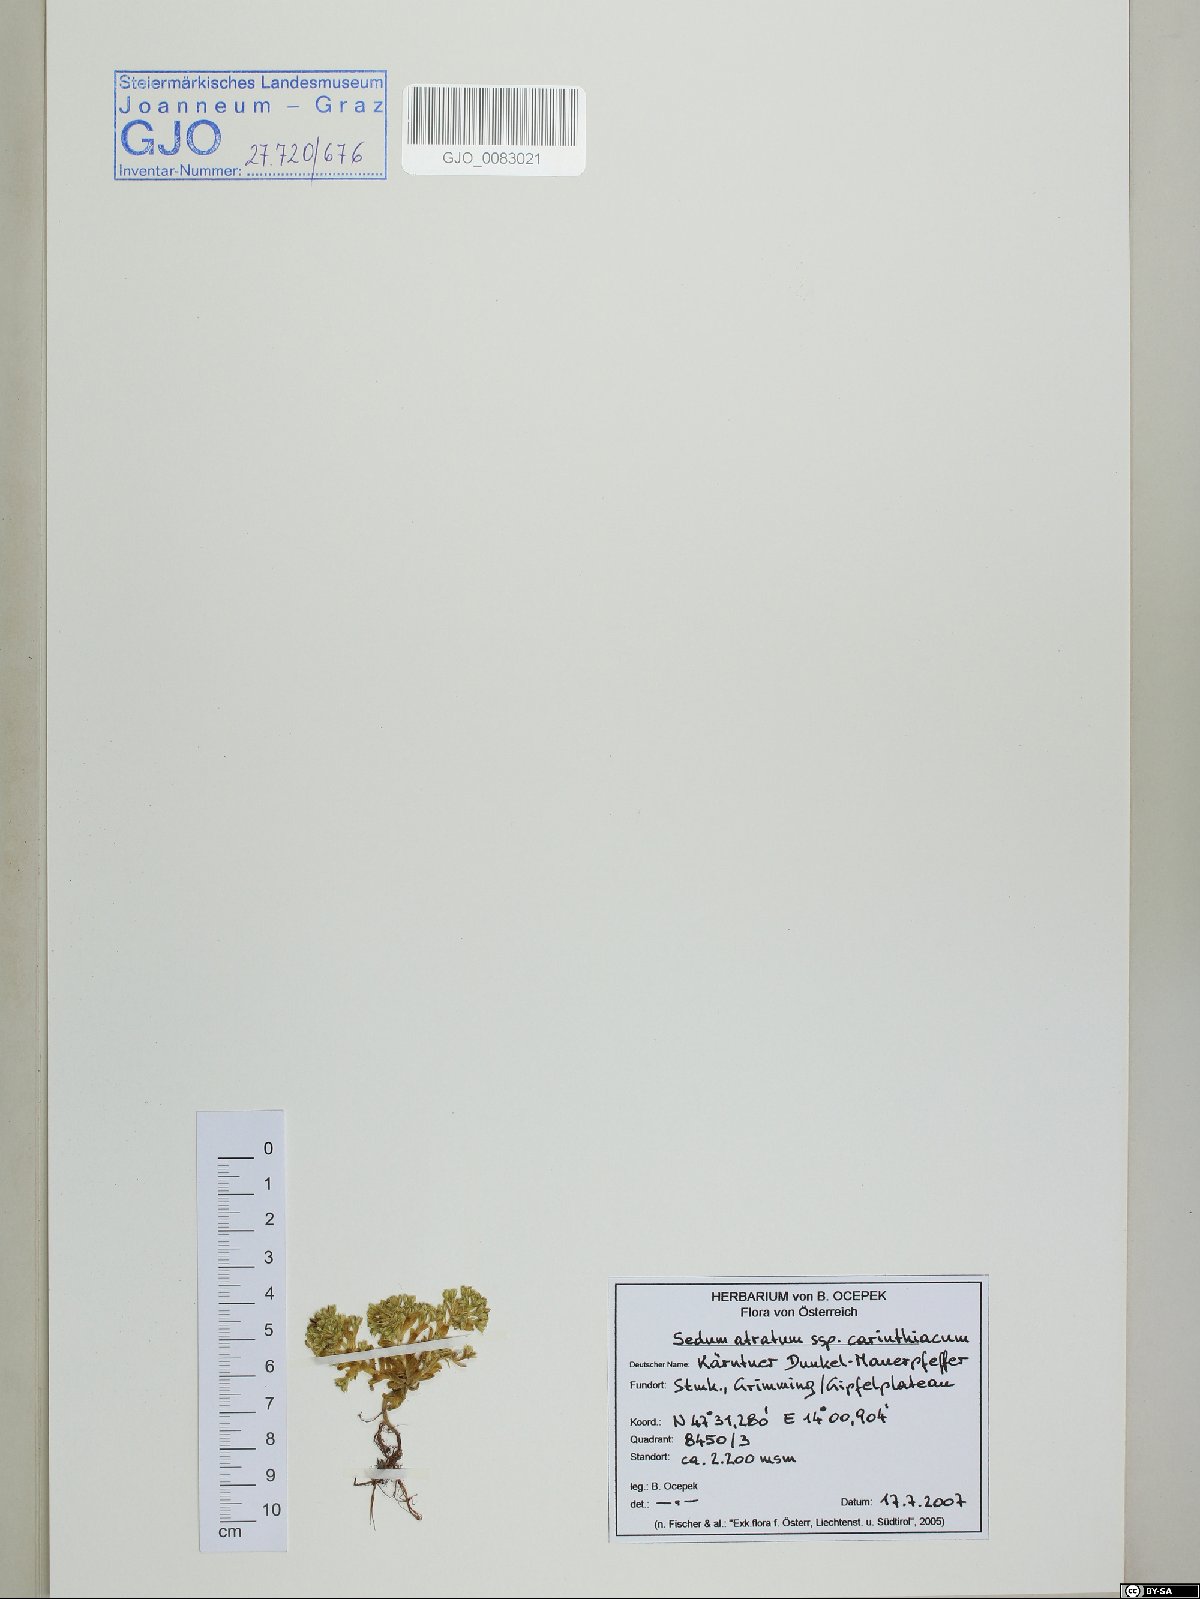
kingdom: Plantae
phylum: Tracheophyta
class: Magnoliopsida
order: Saxifragales
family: Crassulaceae
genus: Sedum
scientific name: Sedum atratum
